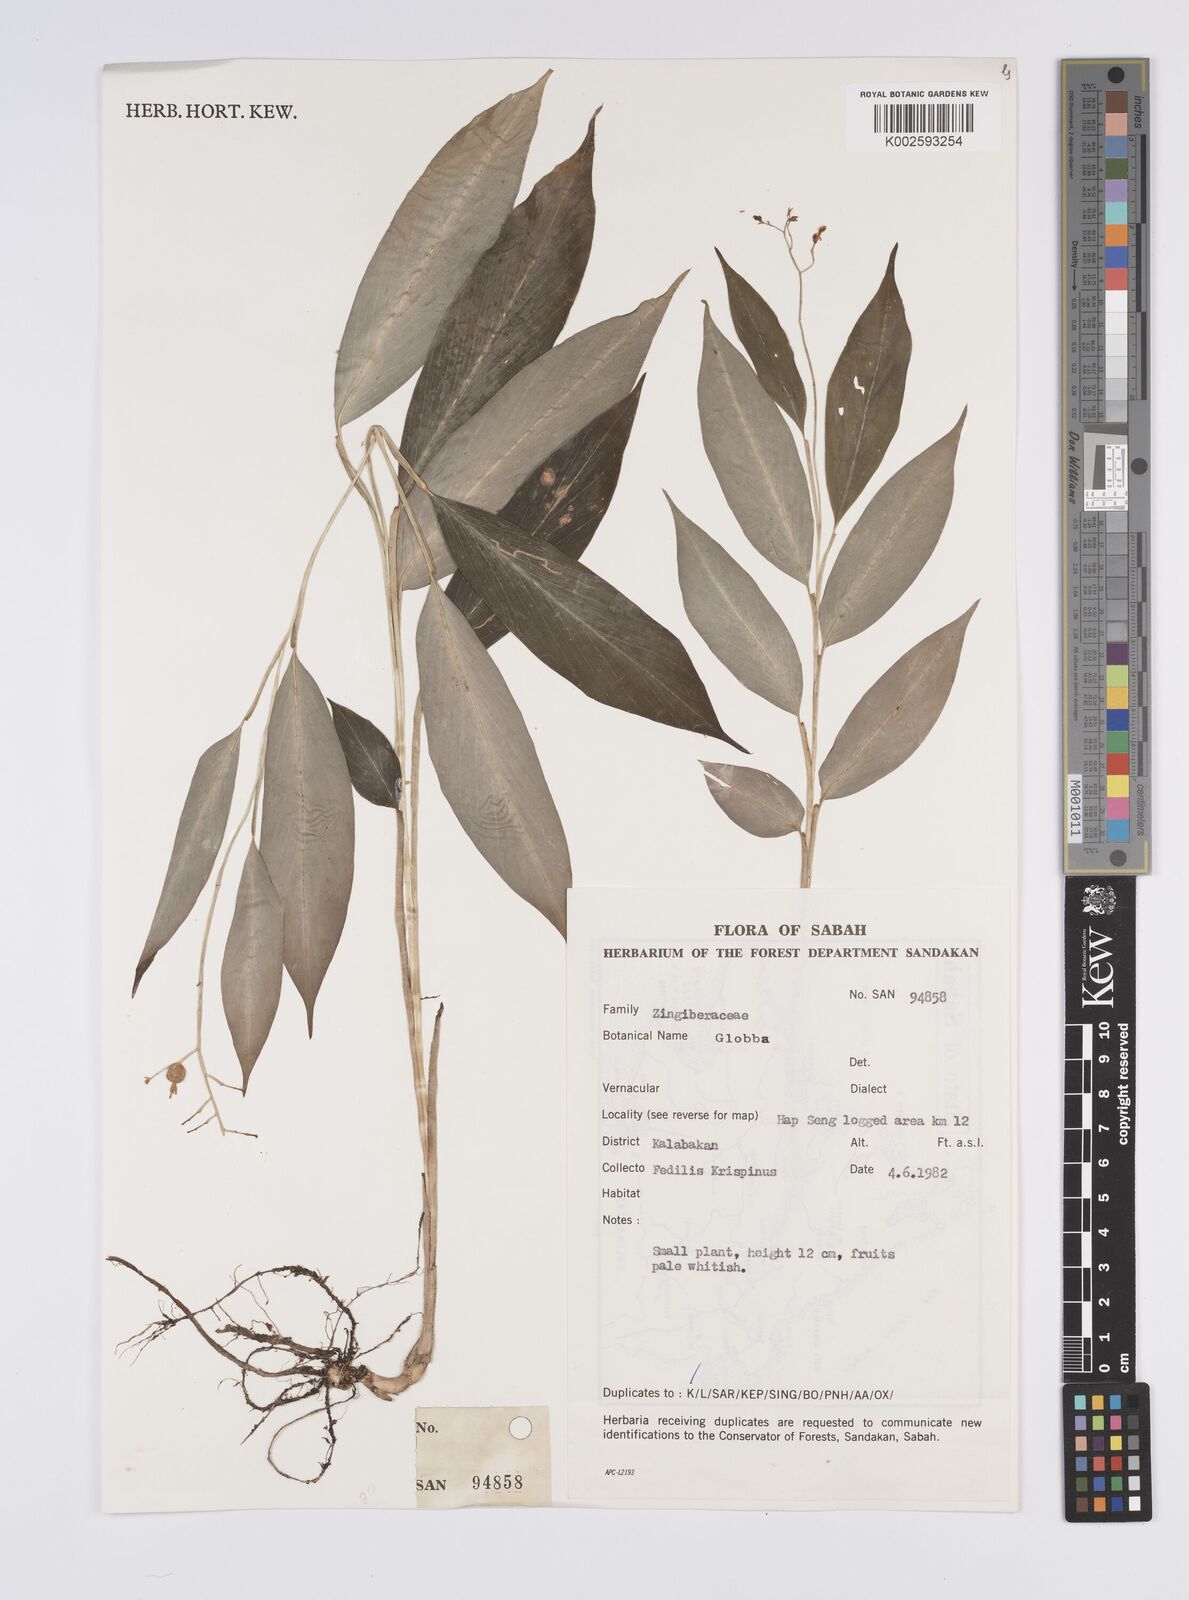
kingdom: Plantae
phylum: Tracheophyta
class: Liliopsida
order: Zingiberales
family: Zingiberaceae
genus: Globba
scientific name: Globba
